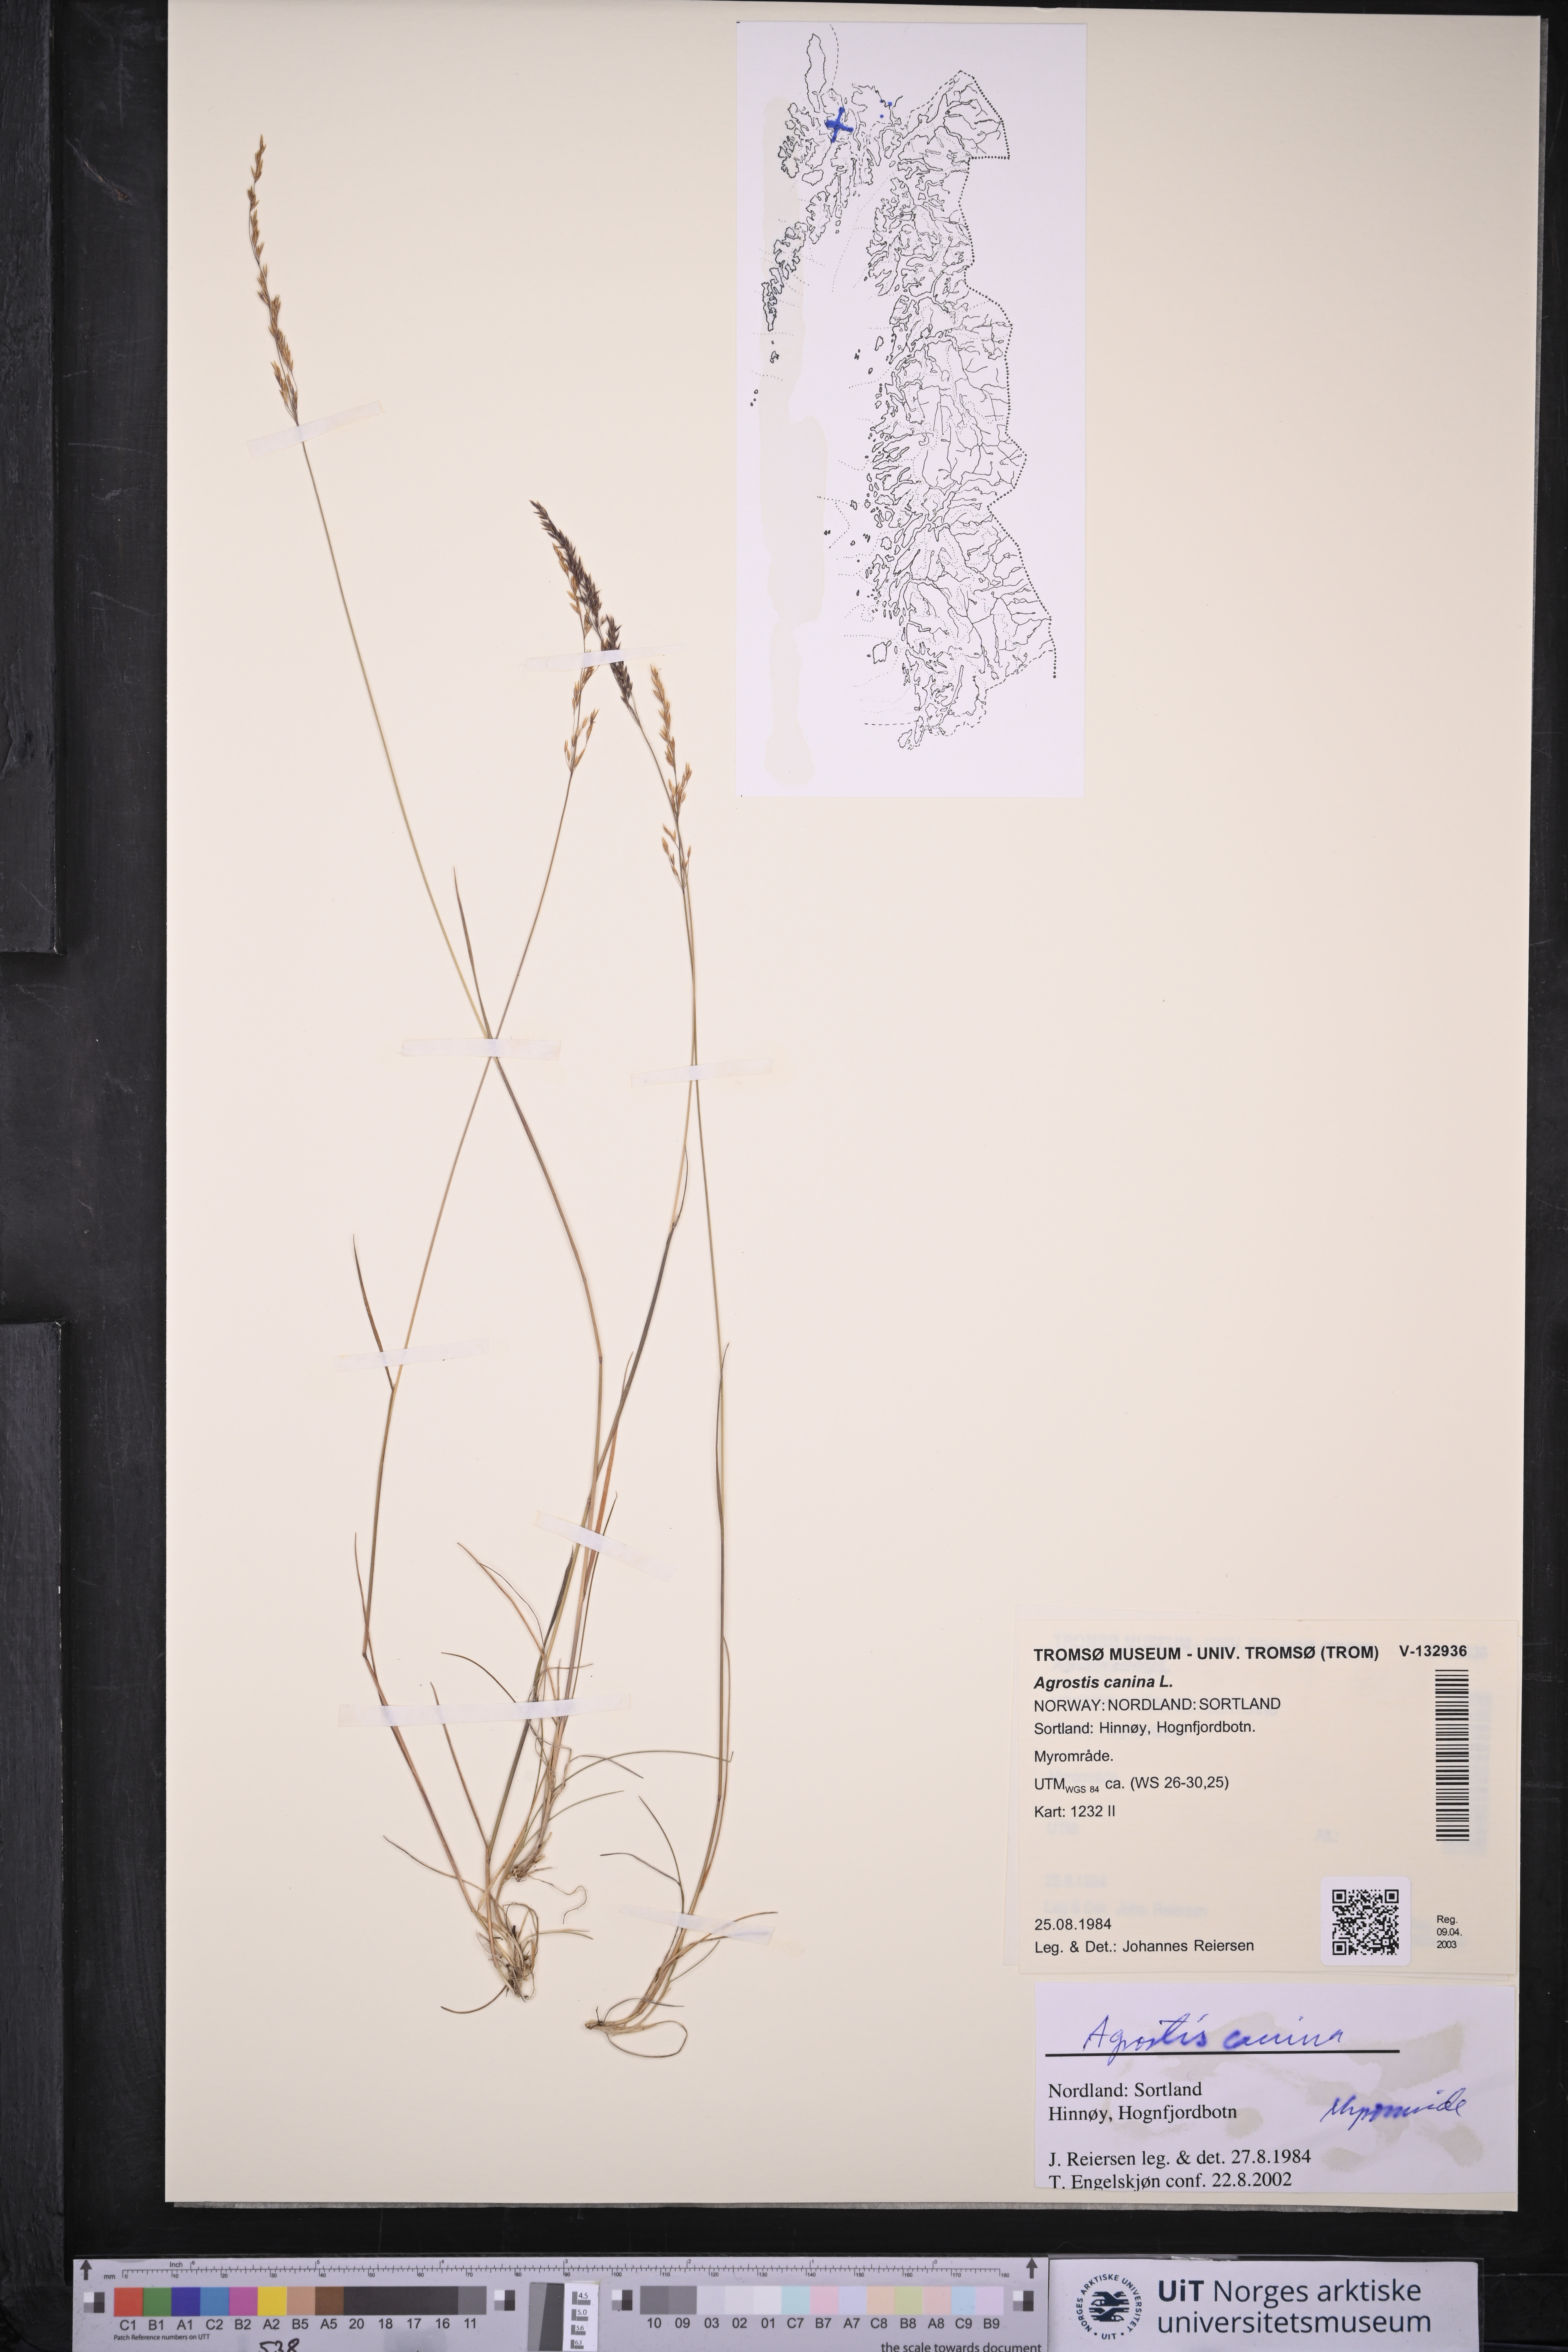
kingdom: Plantae
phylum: Tracheophyta
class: Liliopsida
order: Poales
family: Poaceae
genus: Agrostis
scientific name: Agrostis canina
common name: Velvet bent
